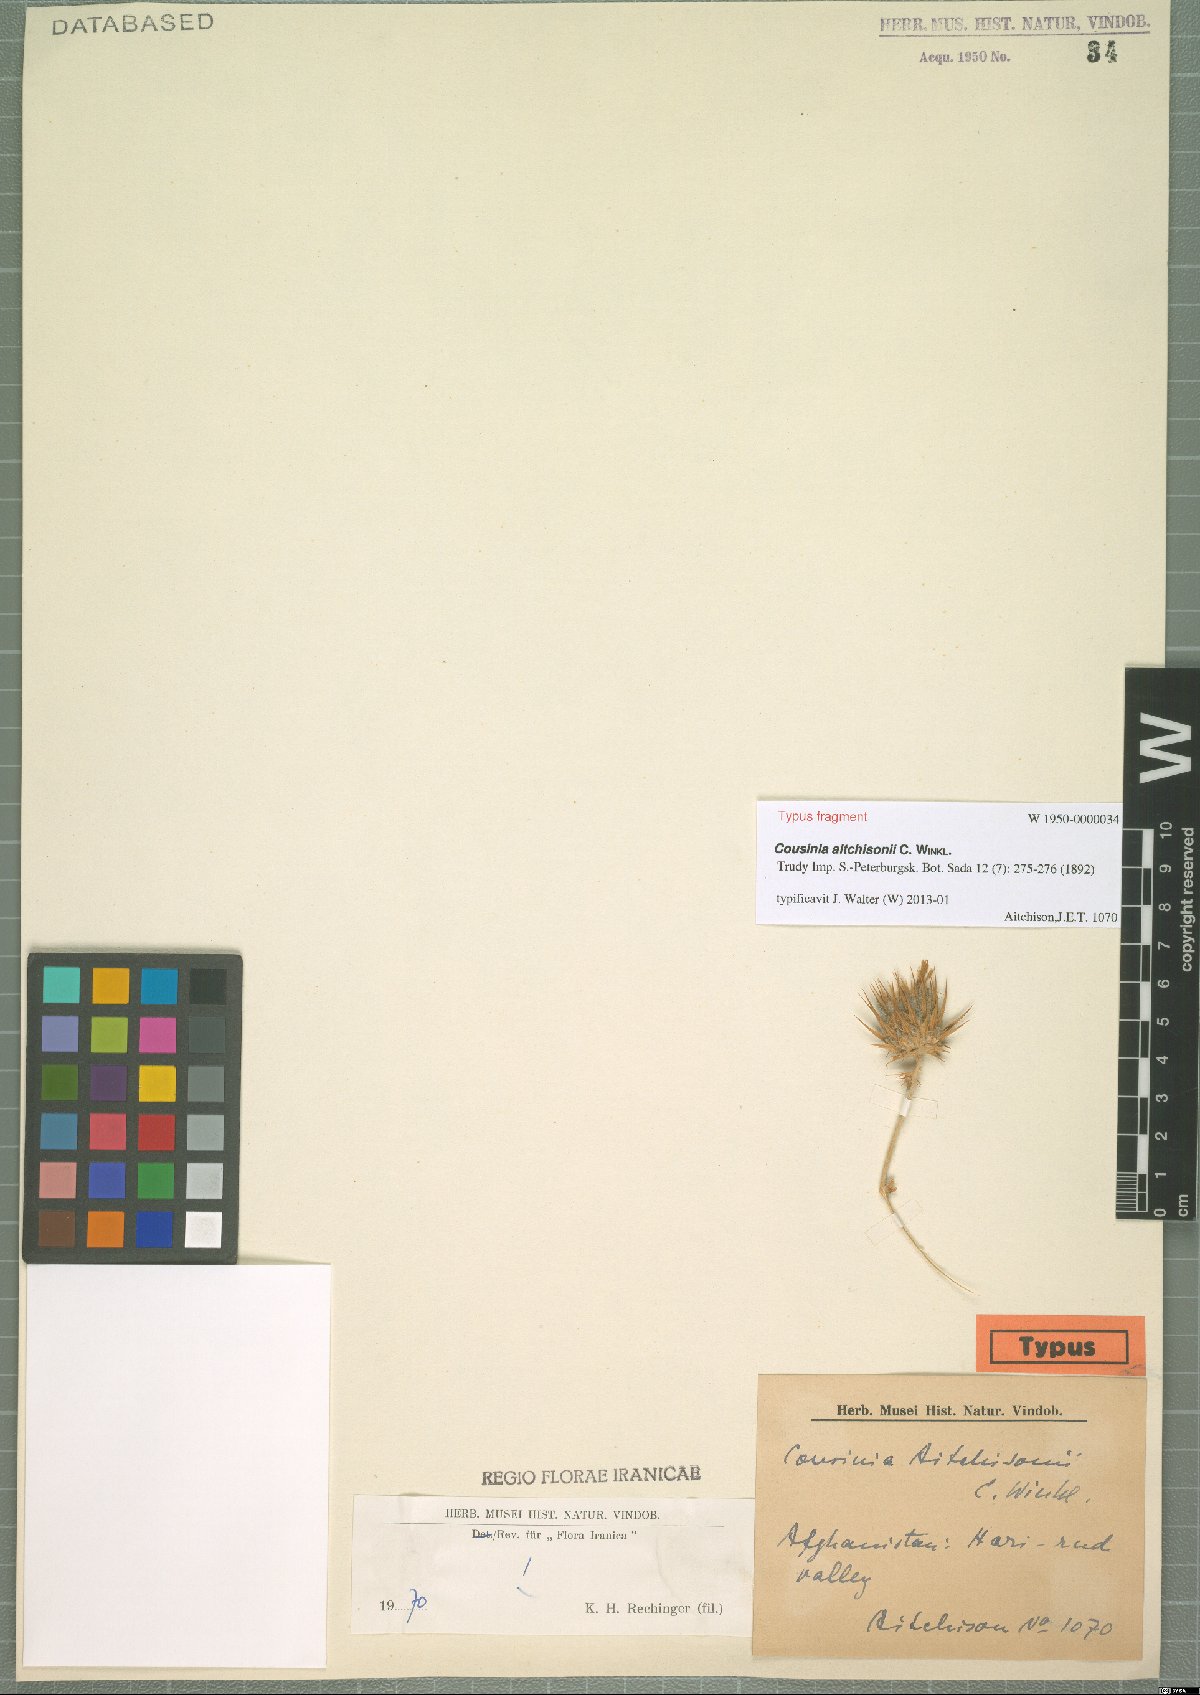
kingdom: Plantae
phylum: Tracheophyta
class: Magnoliopsida
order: Asterales
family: Asteraceae
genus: Cousinia
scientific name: Cousinia aitchisonii
